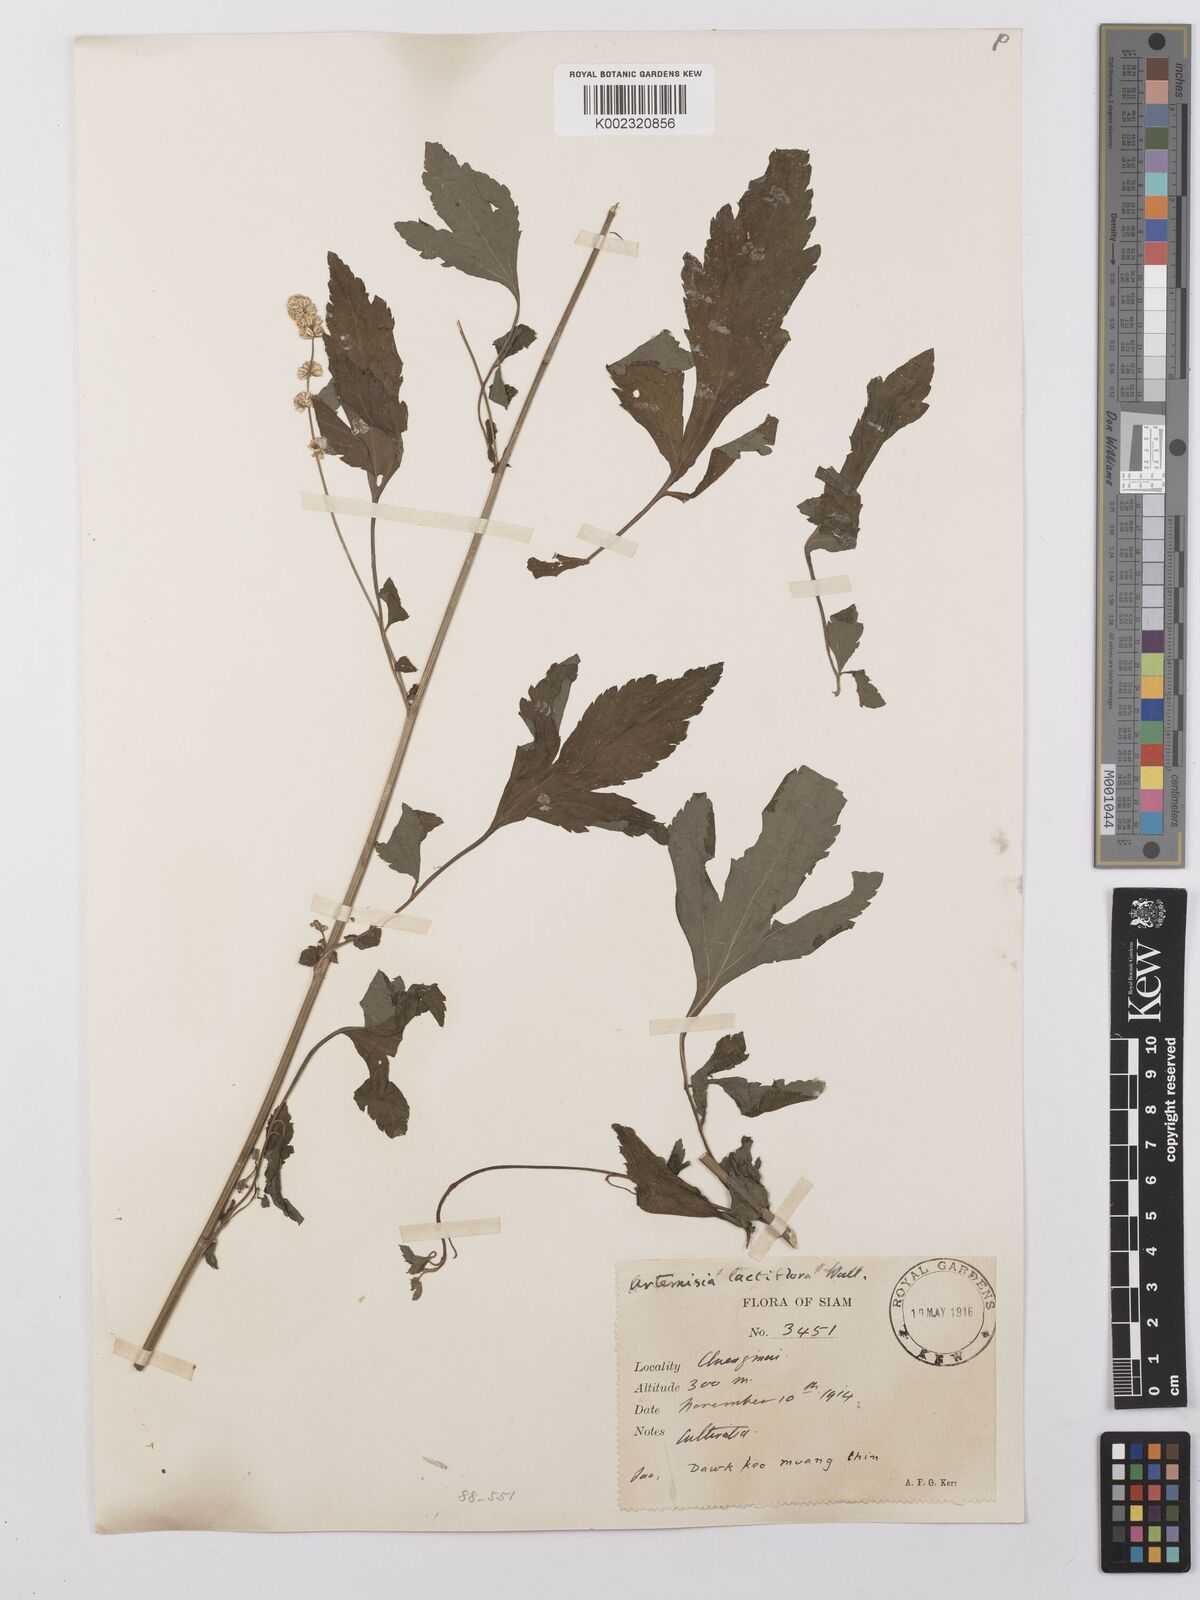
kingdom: Plantae
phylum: Tracheophyta
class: Magnoliopsida
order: Asterales
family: Asteraceae
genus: Artemisia
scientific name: Artemisia lactiflora
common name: White mugwort
